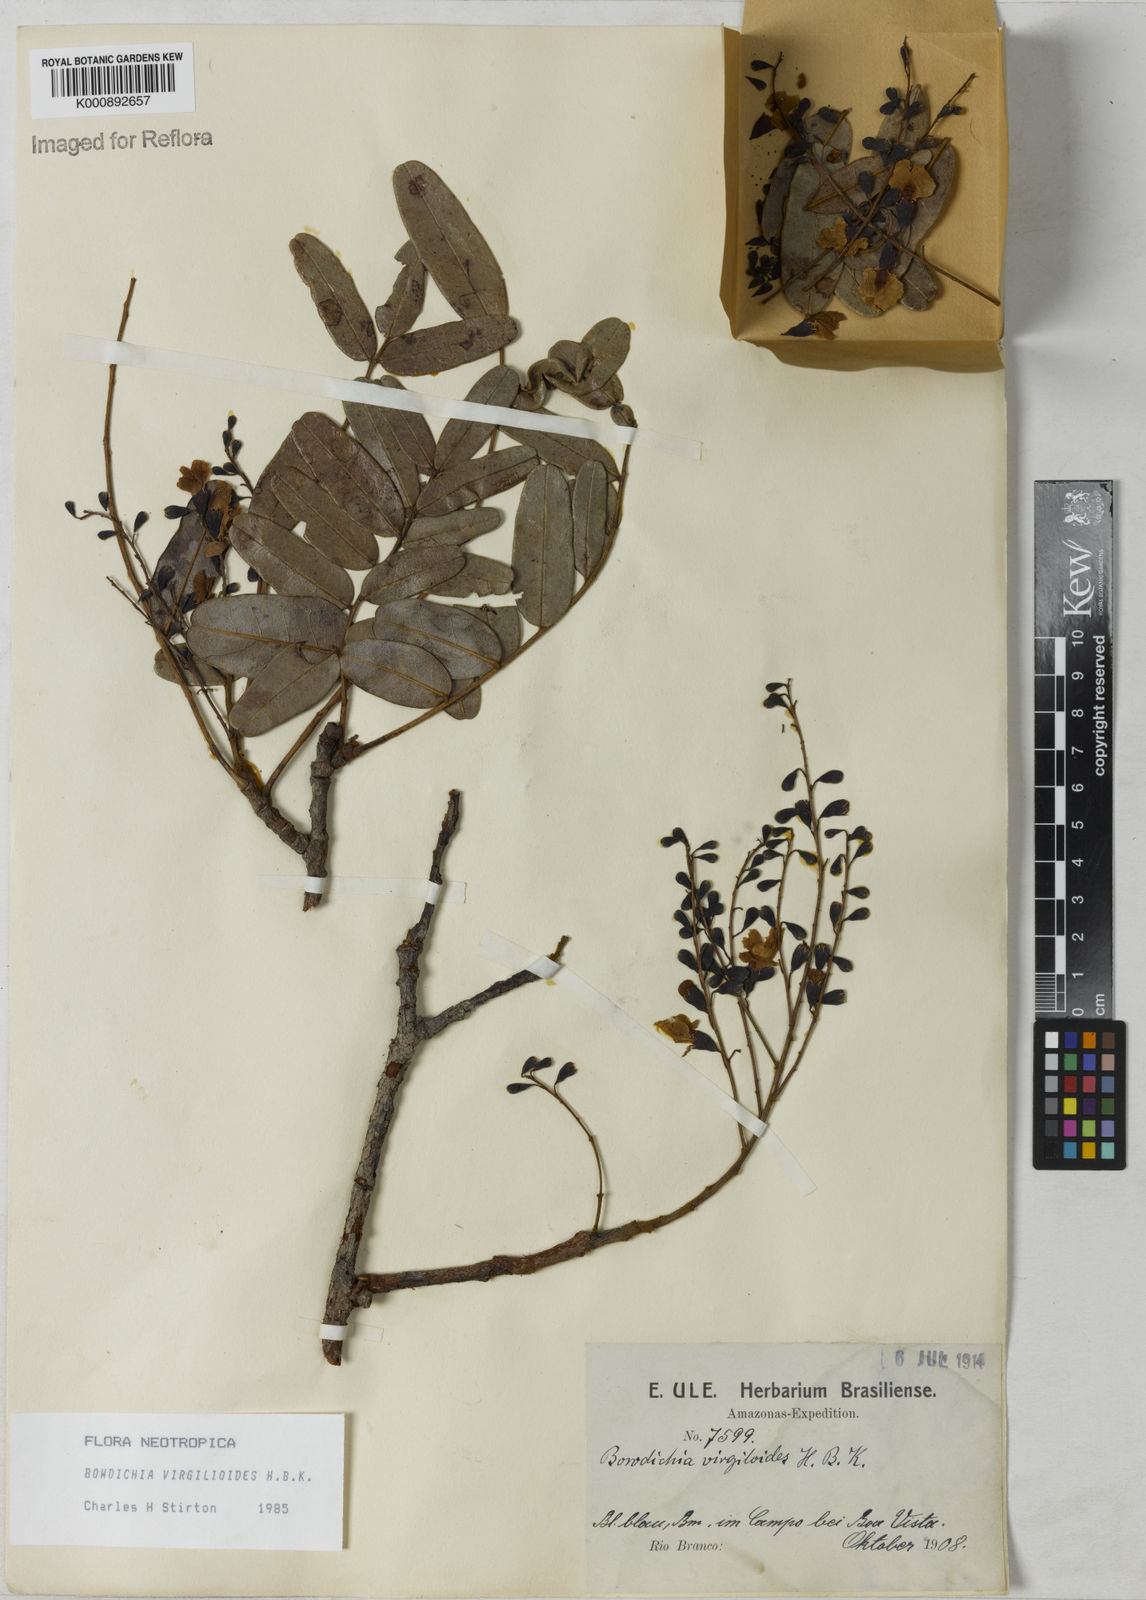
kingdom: Plantae
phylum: Tracheophyta
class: Magnoliopsida
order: Fabales
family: Fabaceae
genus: Bowdichia
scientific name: Bowdichia virgilioides
